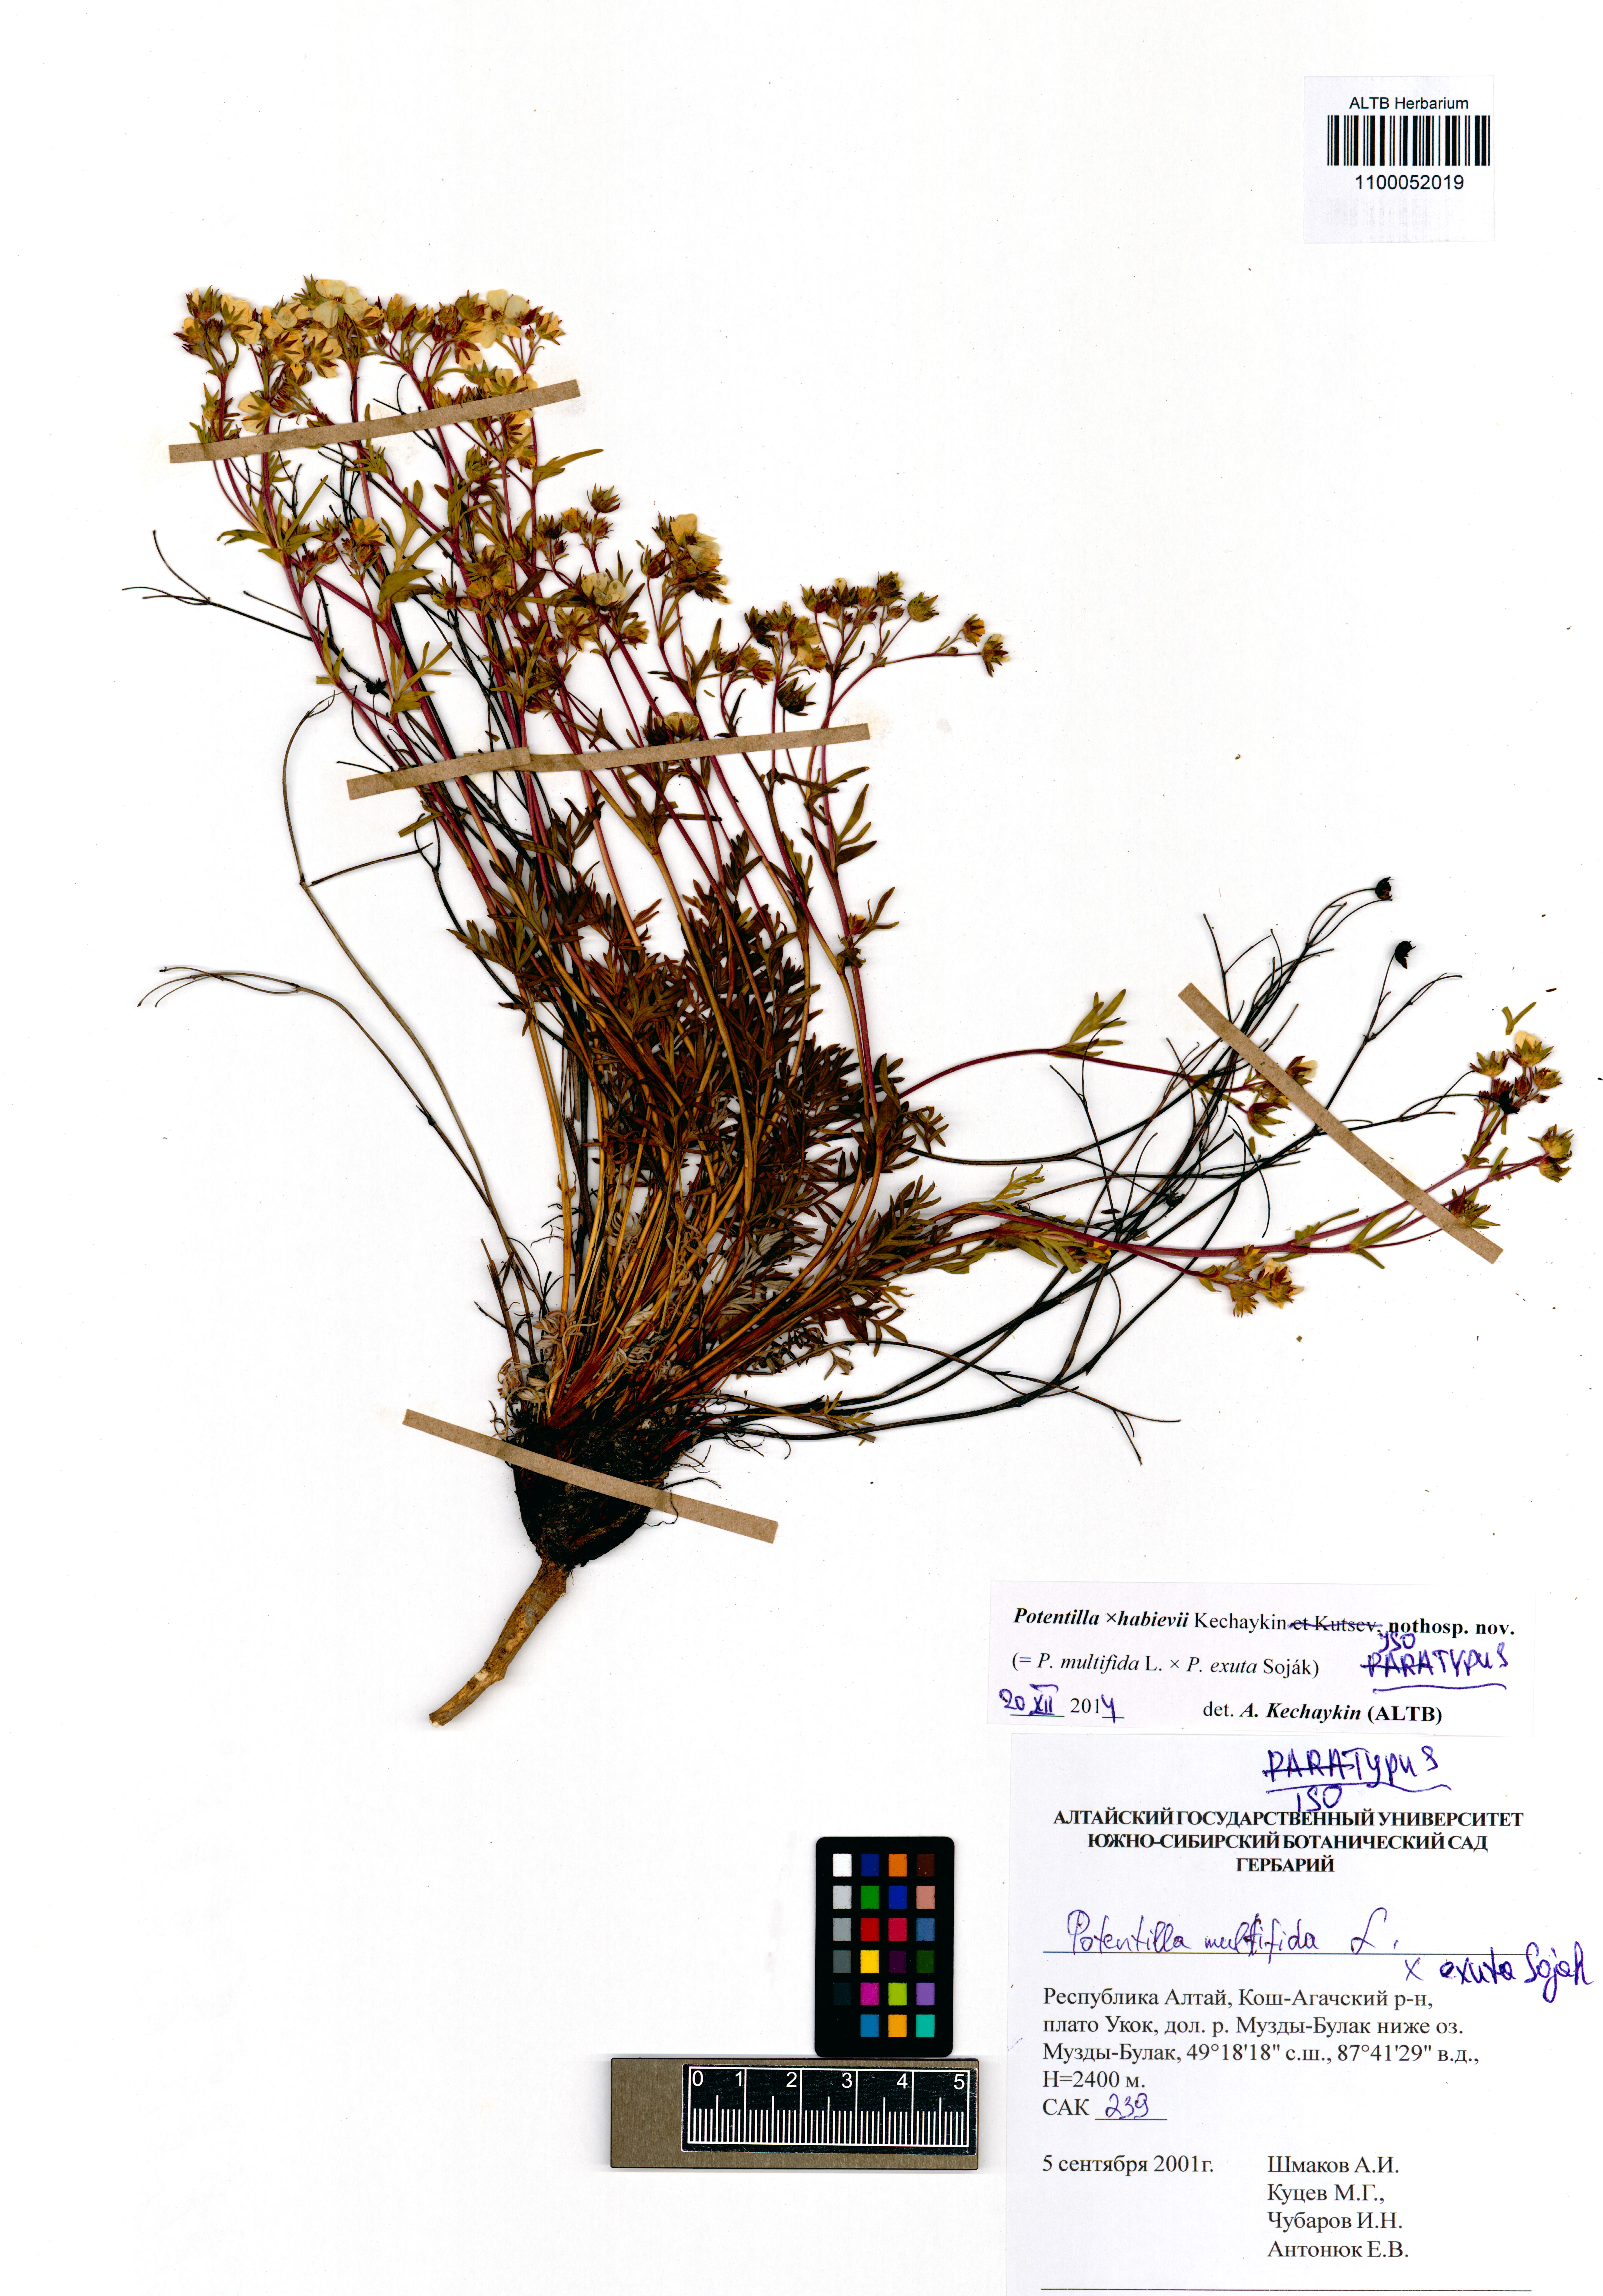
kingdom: Plantae
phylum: Tracheophyta
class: Magnoliopsida
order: Rosales
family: Rosaceae
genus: Potentilla
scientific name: Potentilla habievii
